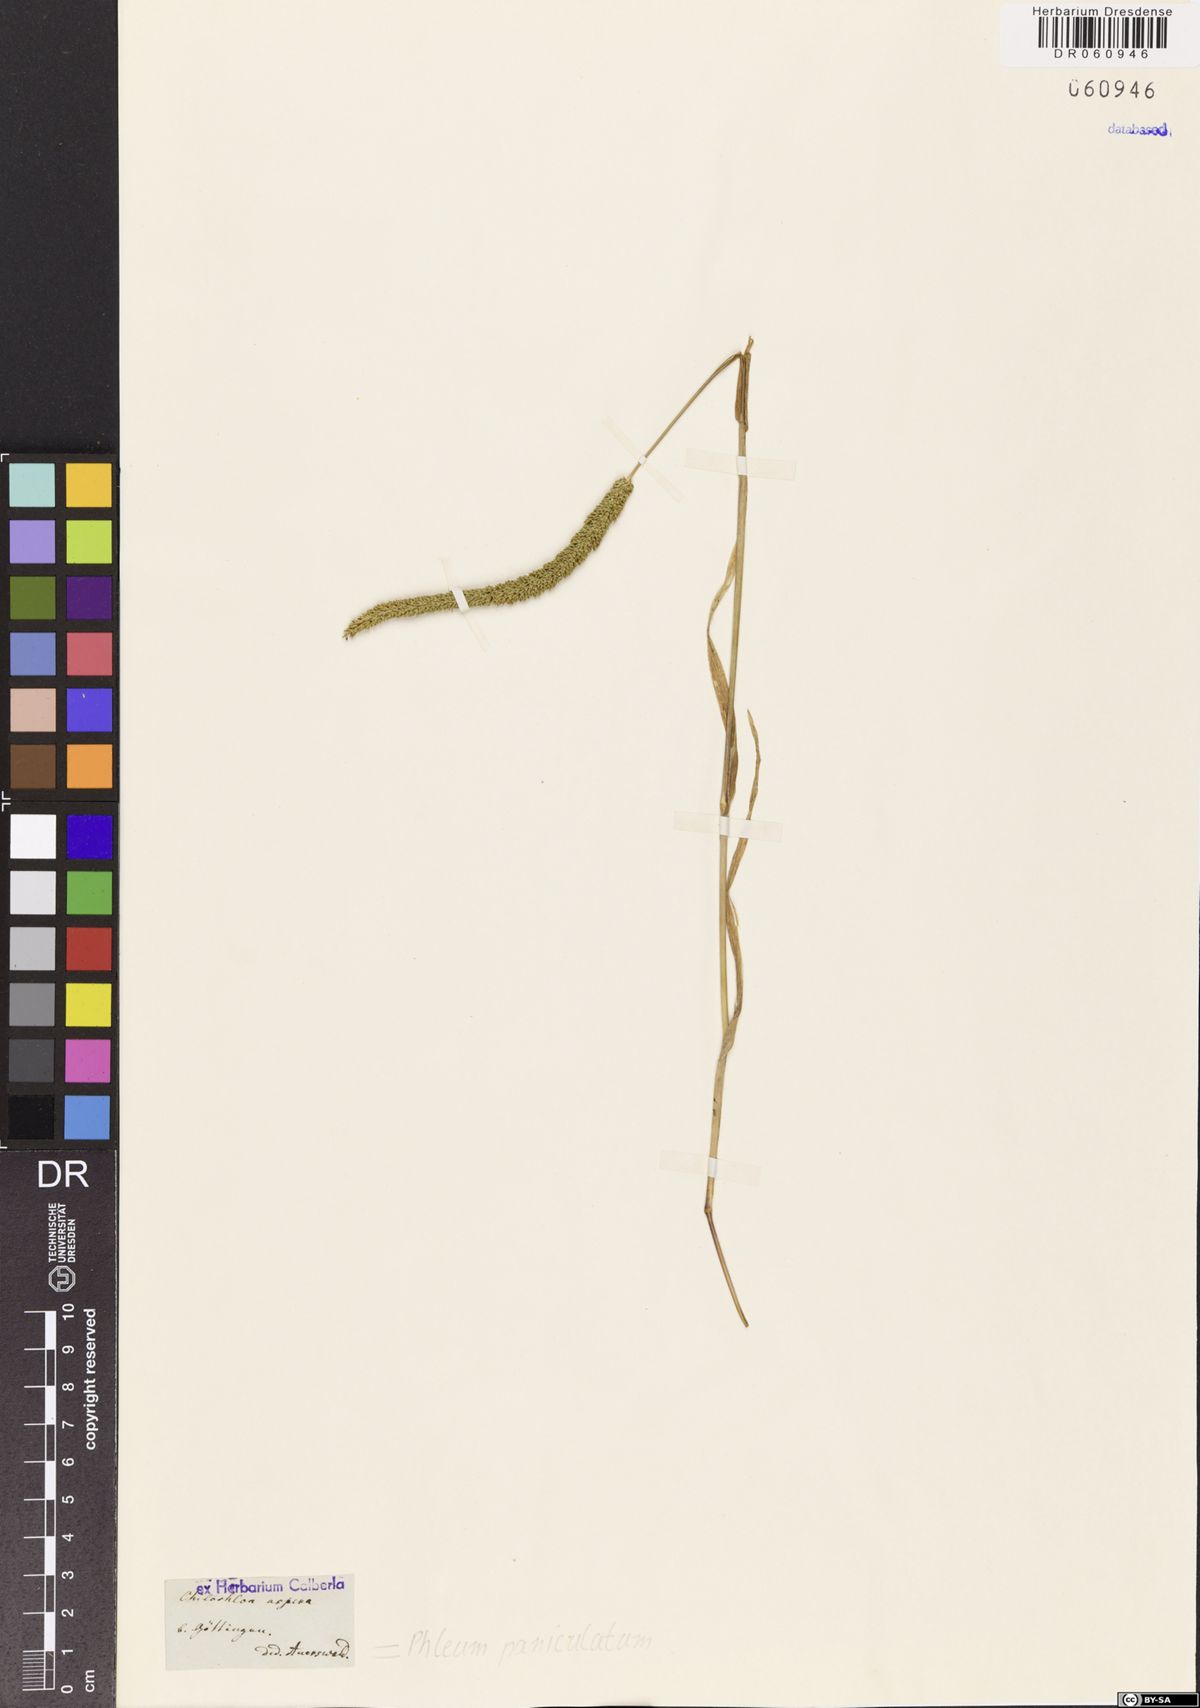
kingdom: Plantae
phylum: Tracheophyta
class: Liliopsida
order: Poales
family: Poaceae
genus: Phleum
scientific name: Phleum paniculatum
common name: British timothy
